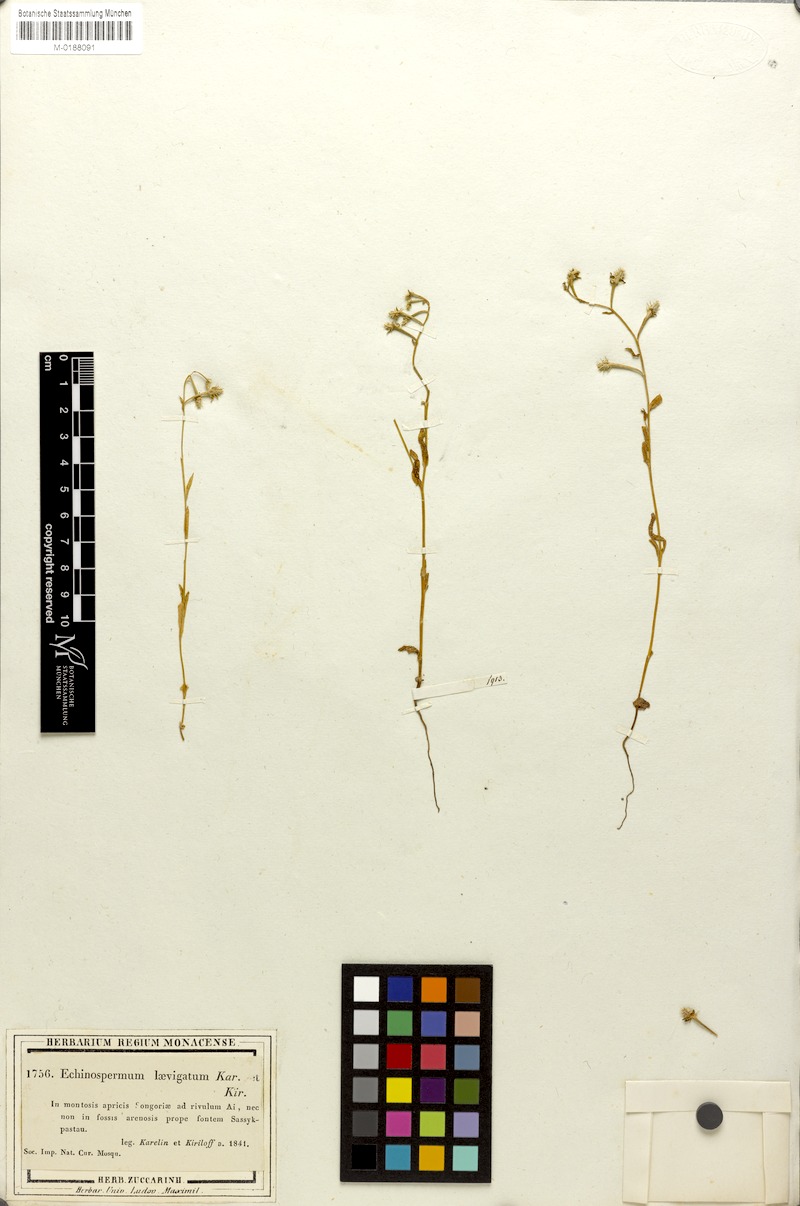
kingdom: Plantae
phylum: Tracheophyta
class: Magnoliopsida
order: Boraginales
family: Boraginaceae
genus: Heterocaryum
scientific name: Heterocaryum laevigatum
